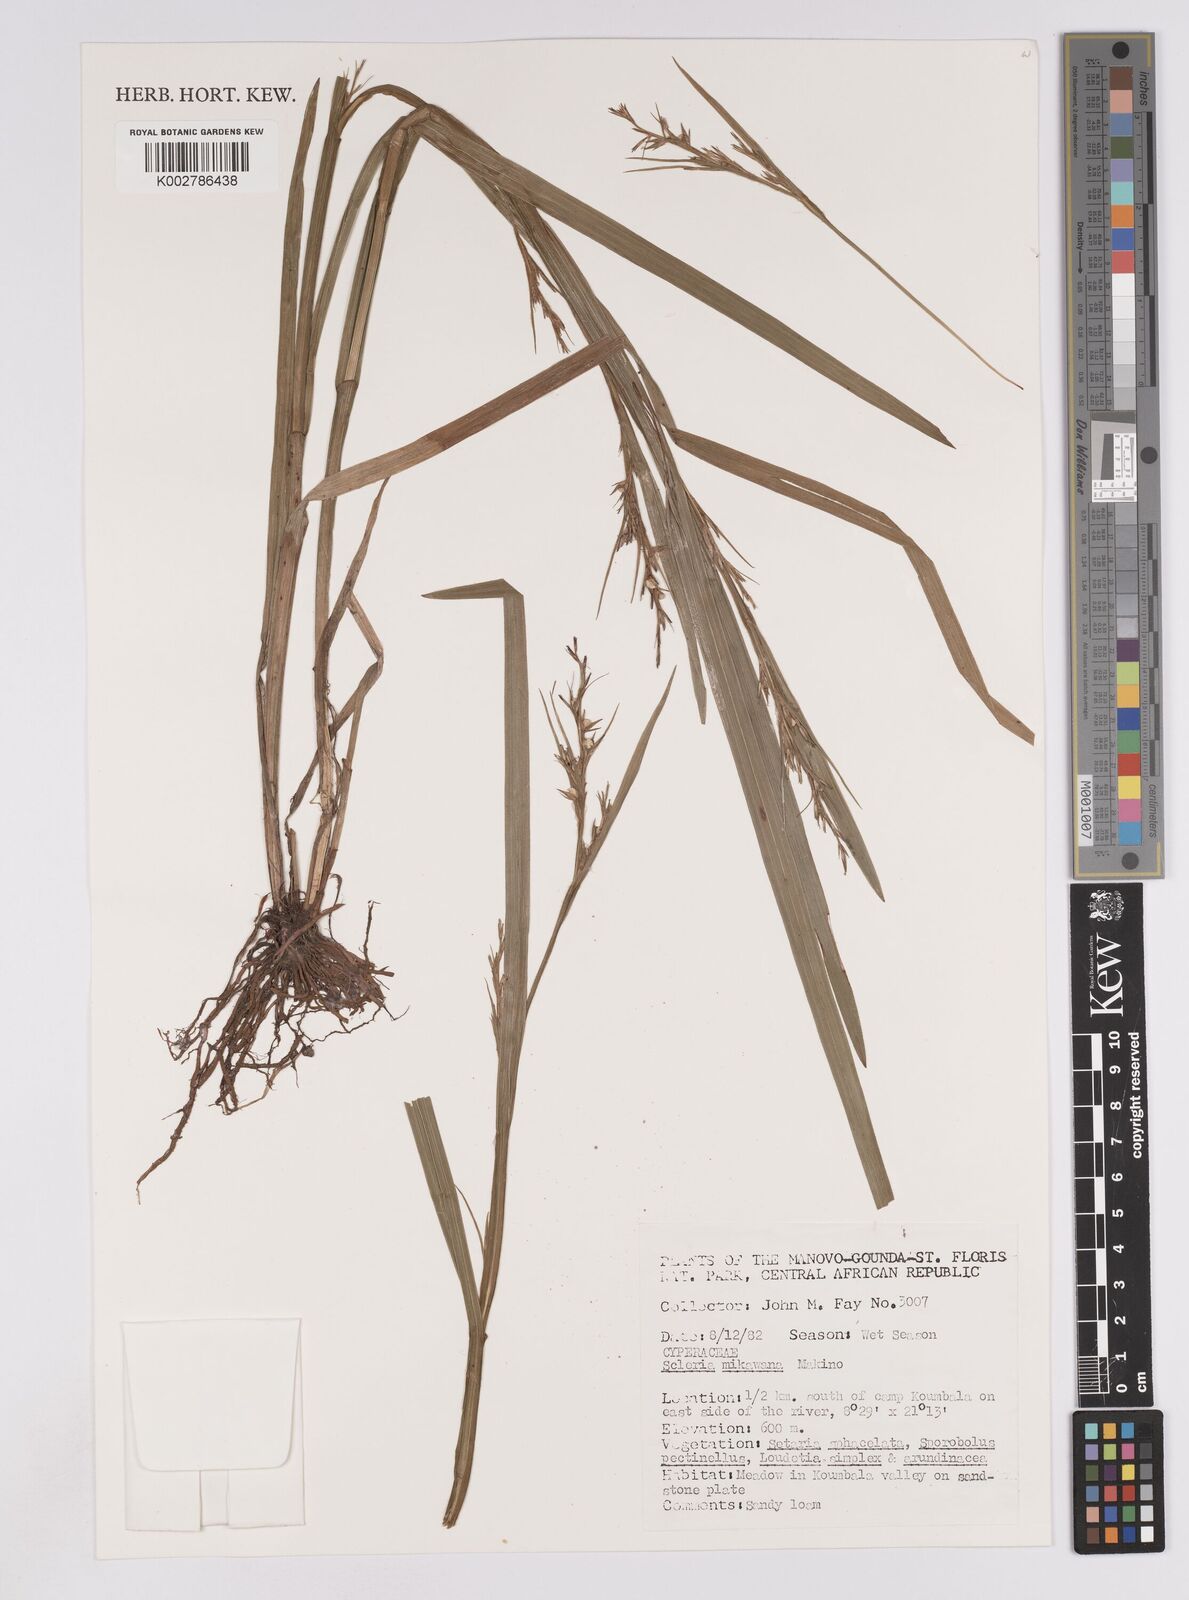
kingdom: Plantae
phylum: Tracheophyta
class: Liliopsida
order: Poales
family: Cyperaceae
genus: Scleria
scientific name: Scleria mikawana
